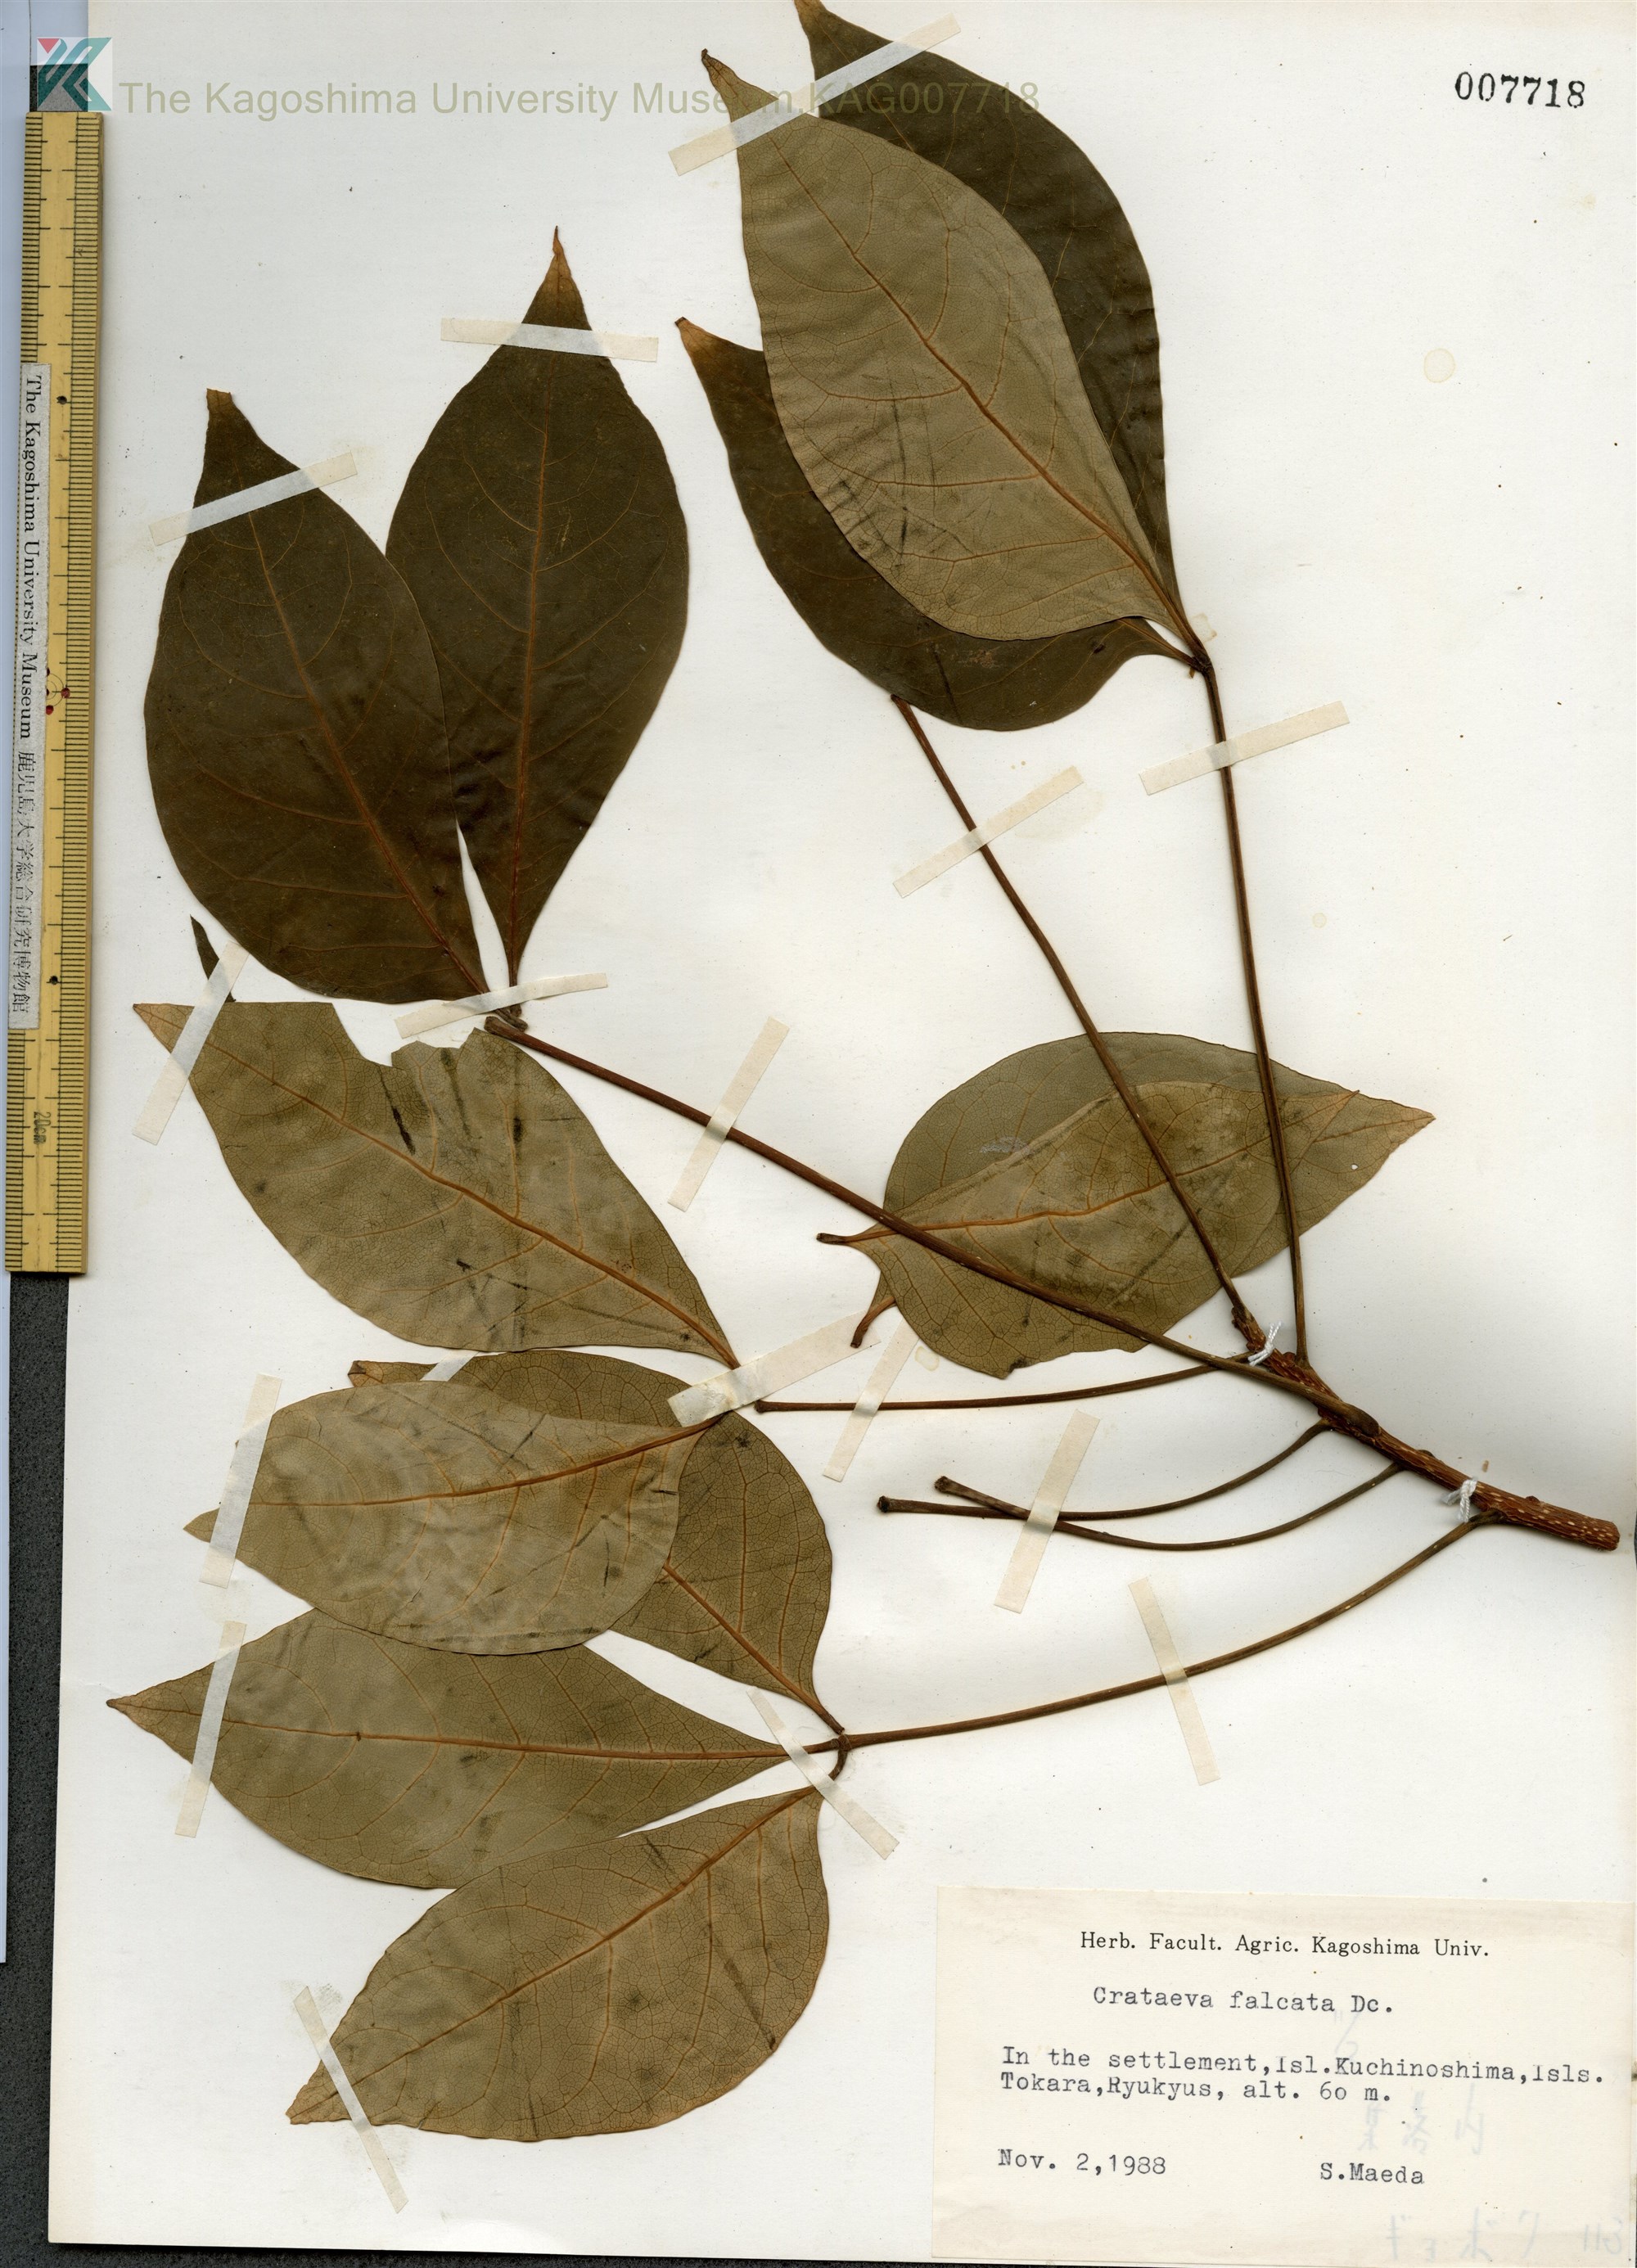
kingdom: Plantae
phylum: Tracheophyta
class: Magnoliopsida
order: Brassicales
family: Capparaceae
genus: Crateva
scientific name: Crateva formosensis
